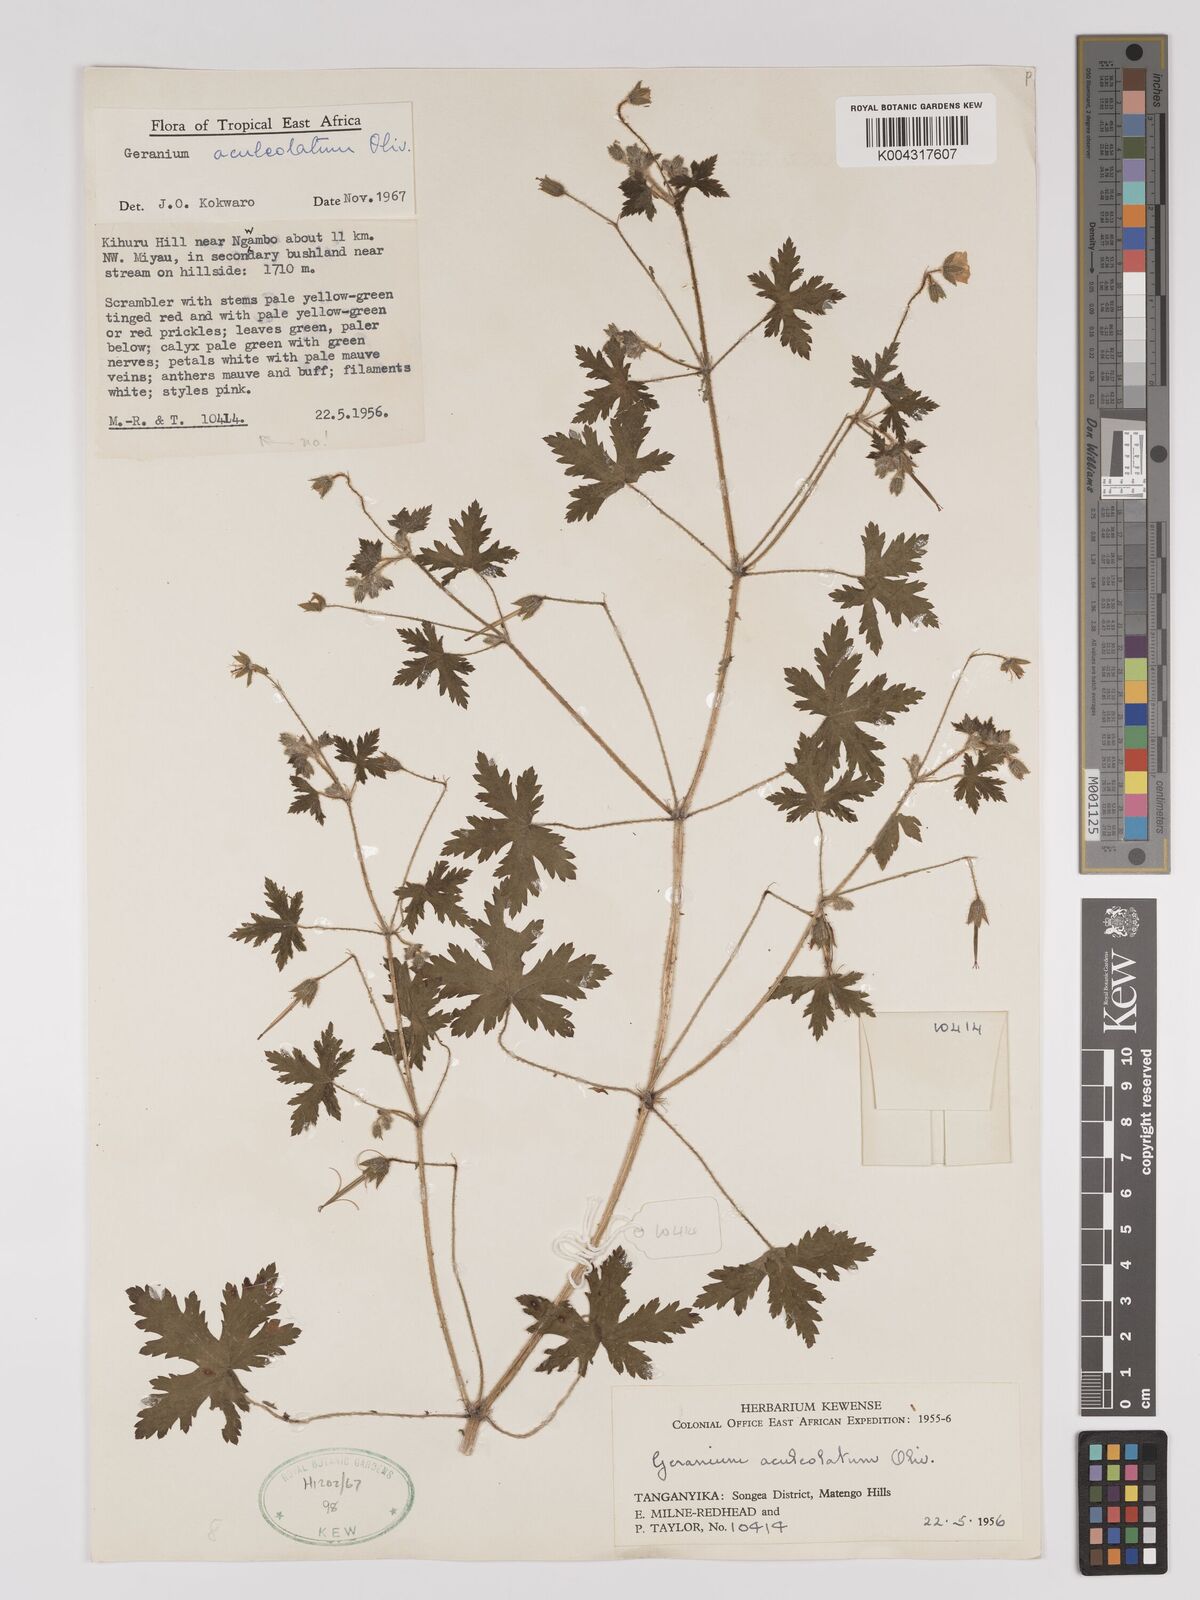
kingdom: Plantae
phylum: Tracheophyta
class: Magnoliopsida
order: Geraniales
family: Geraniaceae
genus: Geranium
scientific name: Geranium aculeolatum
